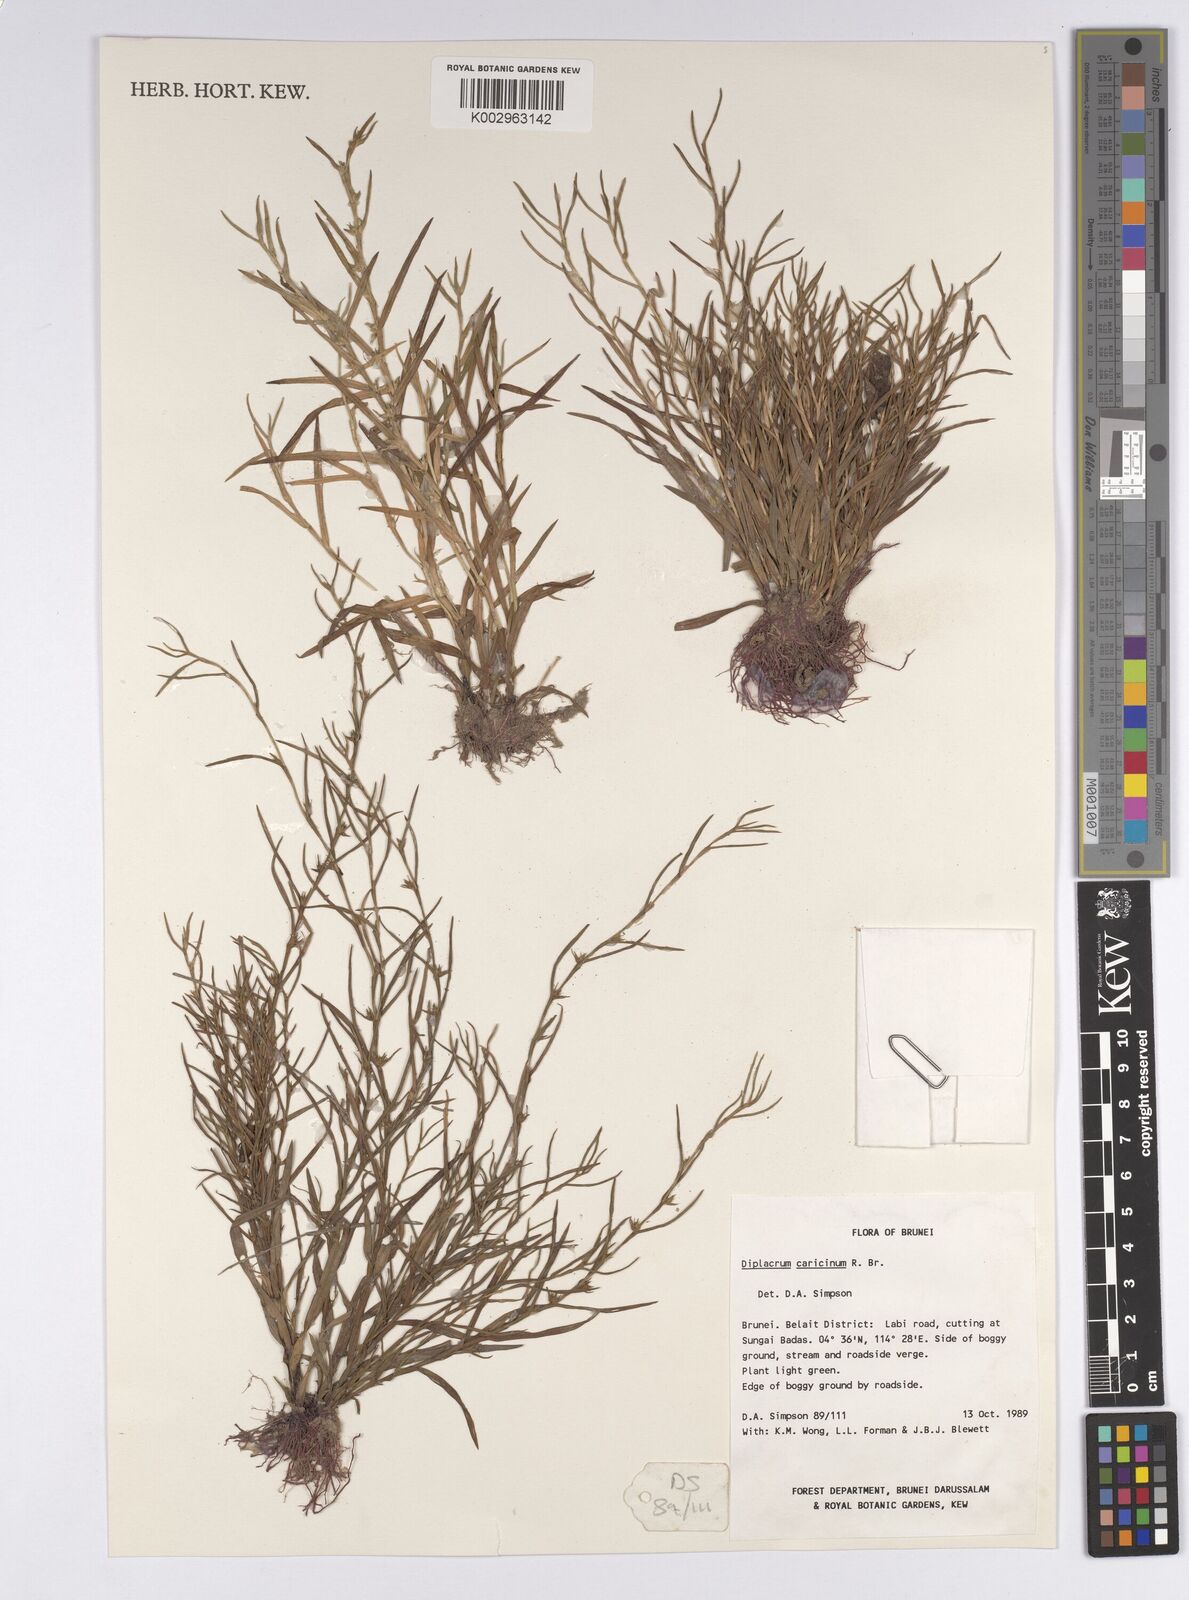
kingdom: Plantae
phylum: Tracheophyta
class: Liliopsida
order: Poales
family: Cyperaceae
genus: Diplacrum
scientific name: Diplacrum caricinum
